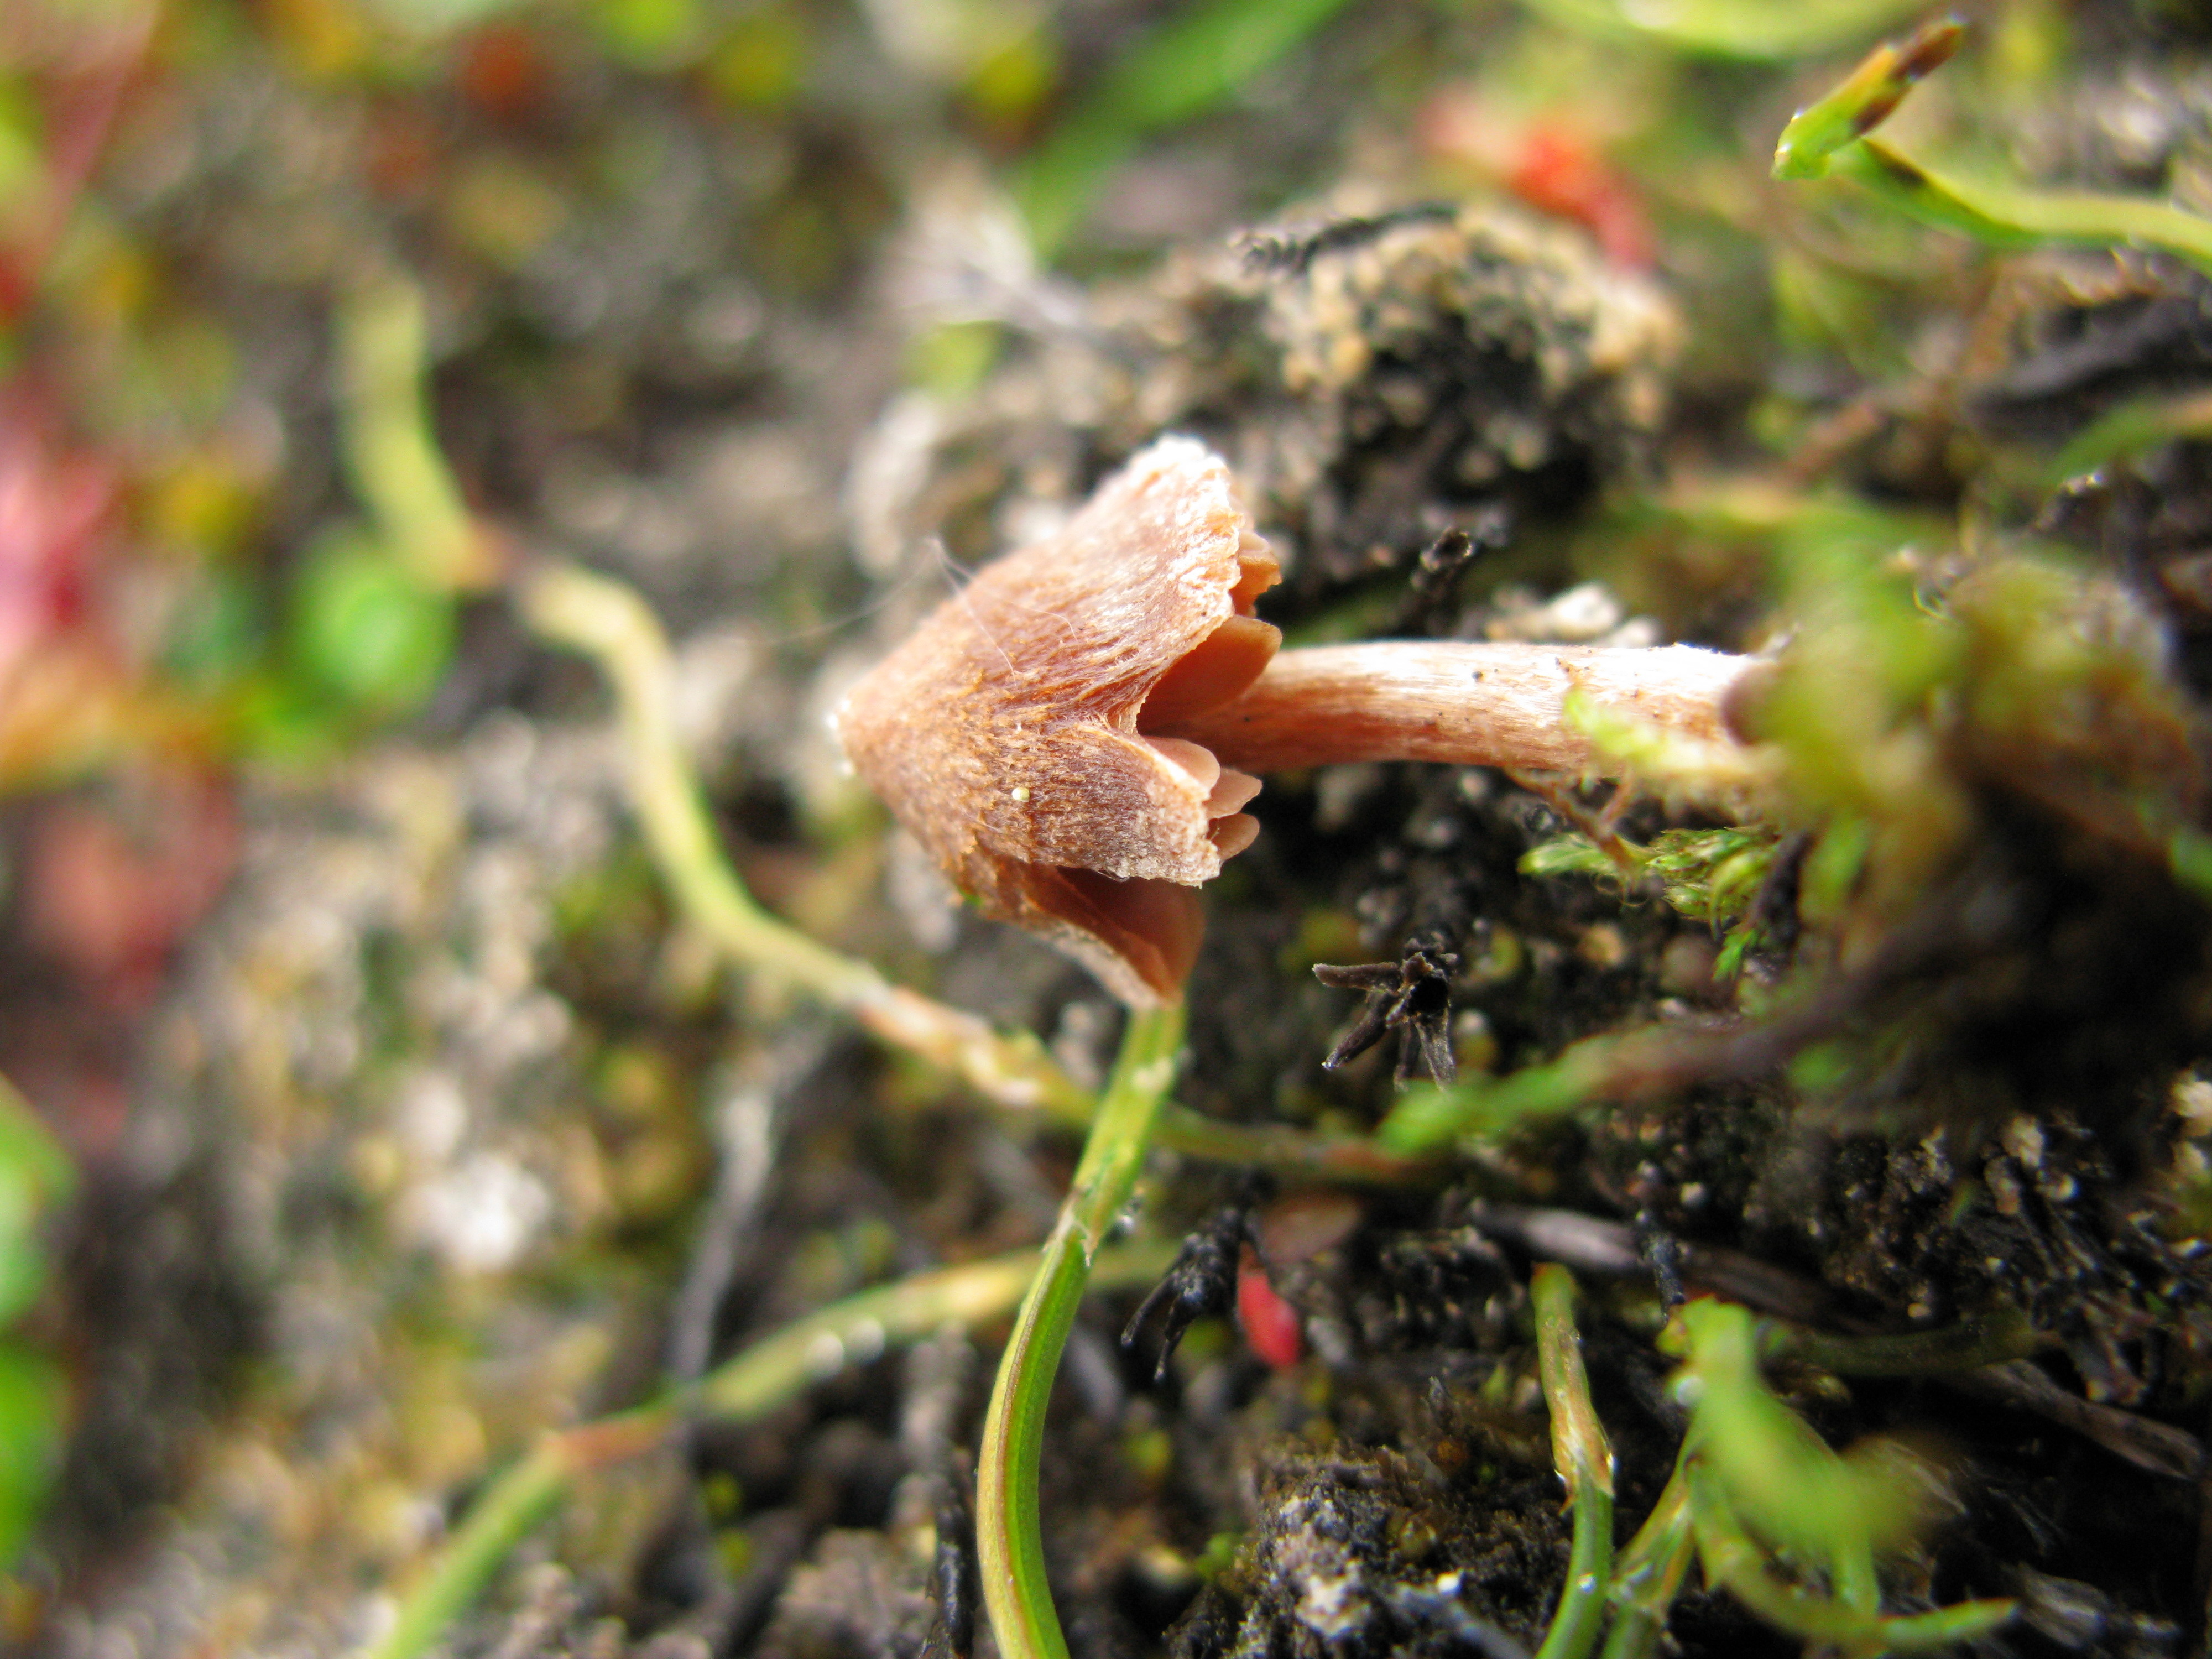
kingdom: Fungi
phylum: Basidiomycota
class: Agaricomycetes
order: Agaricales
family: Cortinariaceae
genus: Cortinarius
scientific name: Cortinarius rusticellus
